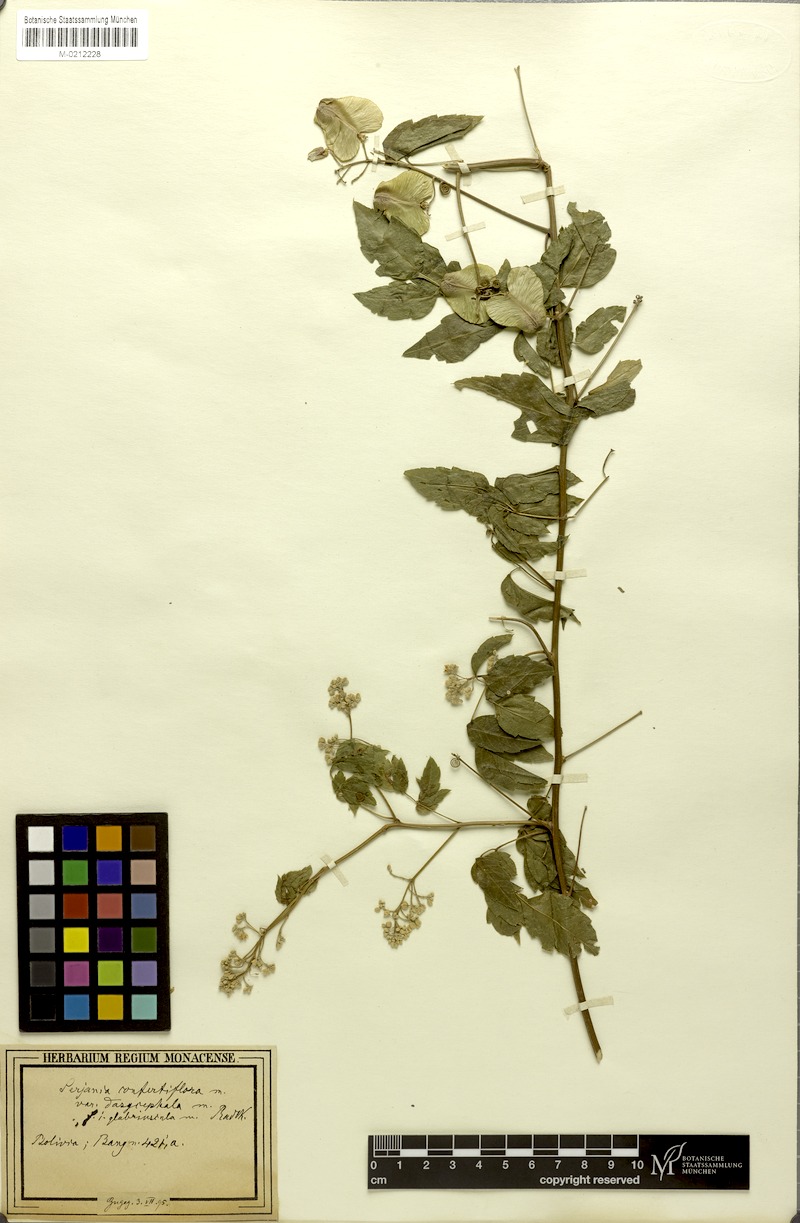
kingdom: Plantae
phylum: Tracheophyta
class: Magnoliopsida
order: Sapindales
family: Sapindaceae
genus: Serjania
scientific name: Serjania confertiflora
